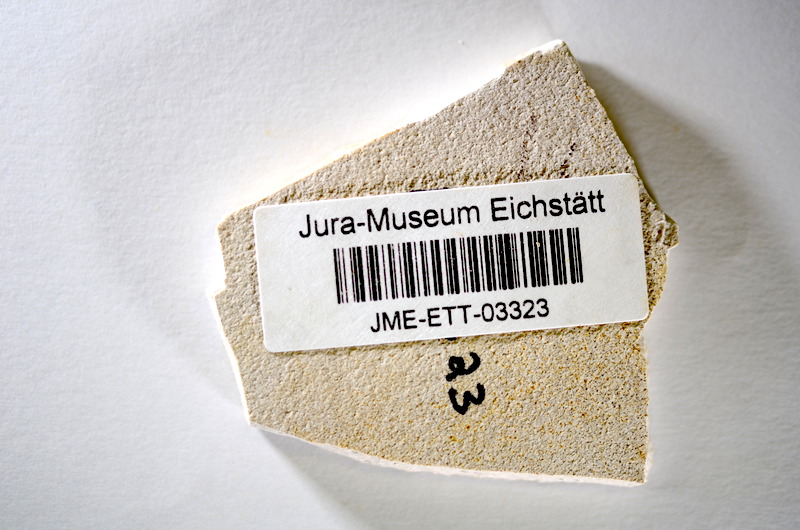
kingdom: Animalia
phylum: Chordata
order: Salmoniformes
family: Orthogonikleithridae
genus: Orthogonikleithrus
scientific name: Orthogonikleithrus hoelli
